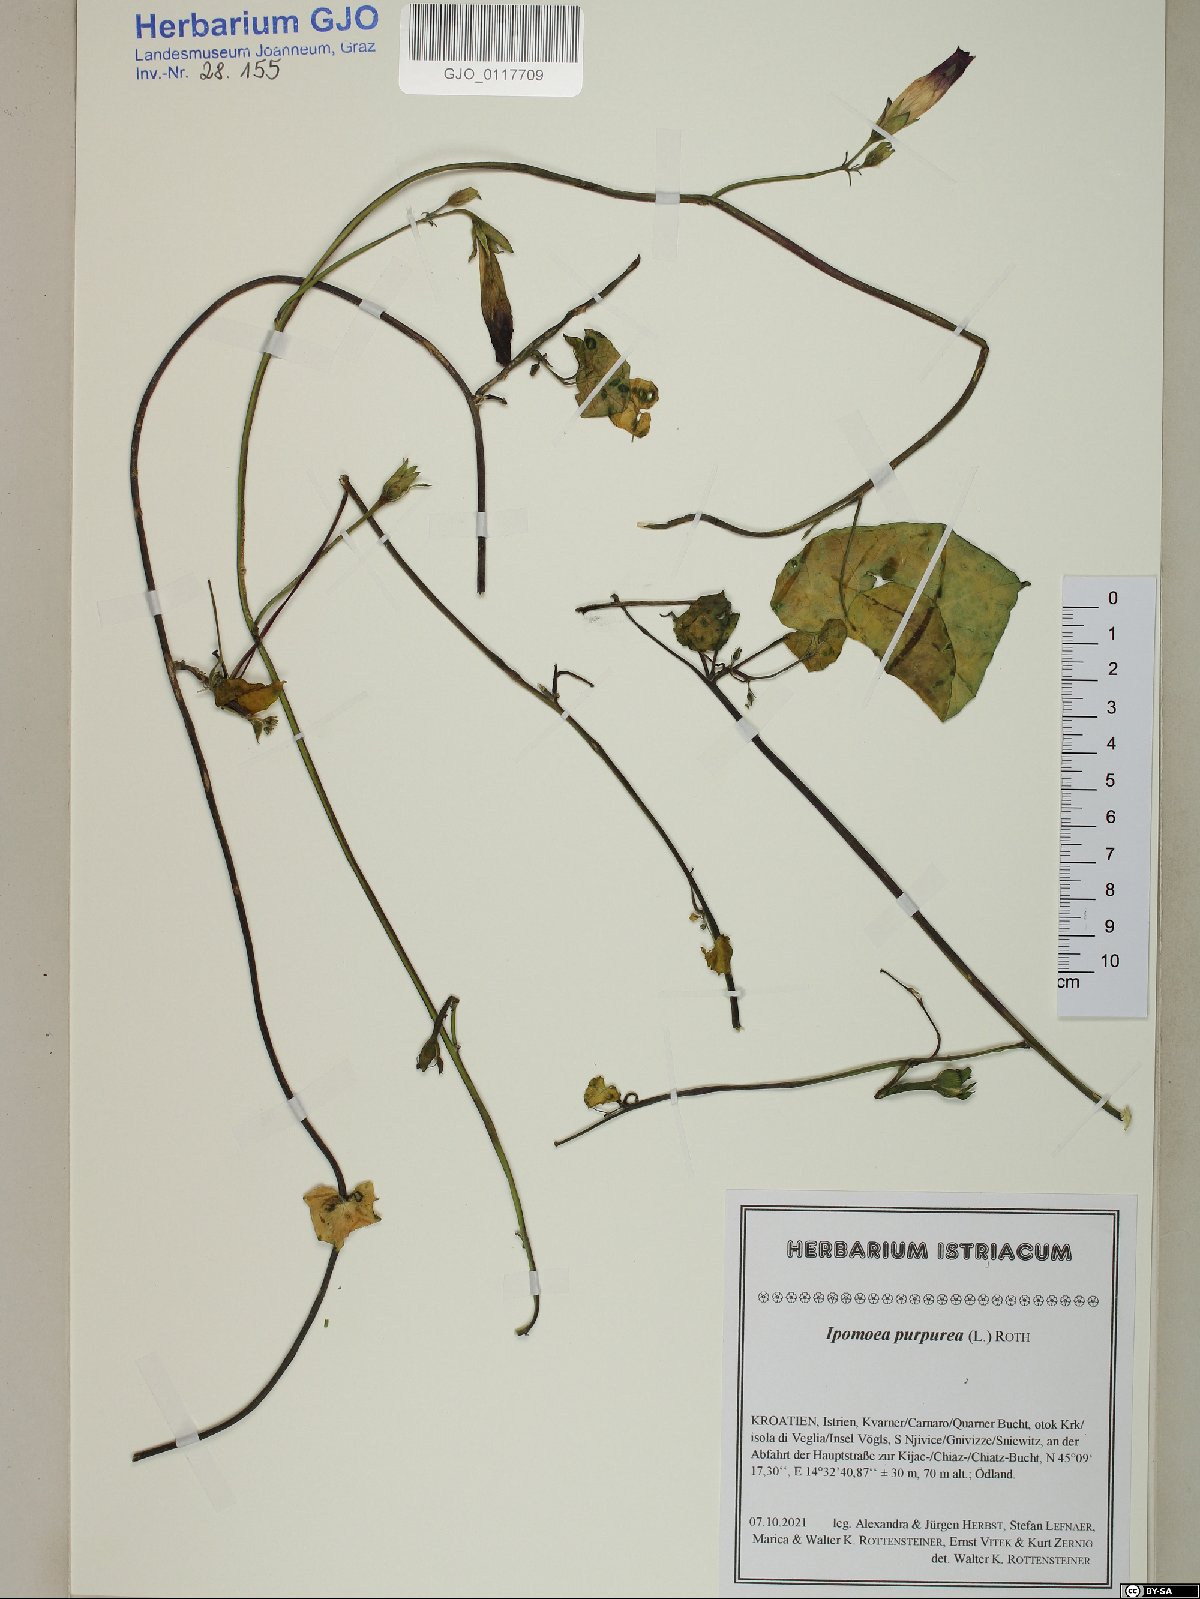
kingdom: Plantae
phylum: Tracheophyta
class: Magnoliopsida
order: Solanales
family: Convolvulaceae
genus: Ipomoea
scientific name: Ipomoea purpurea
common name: Common morning-glory
